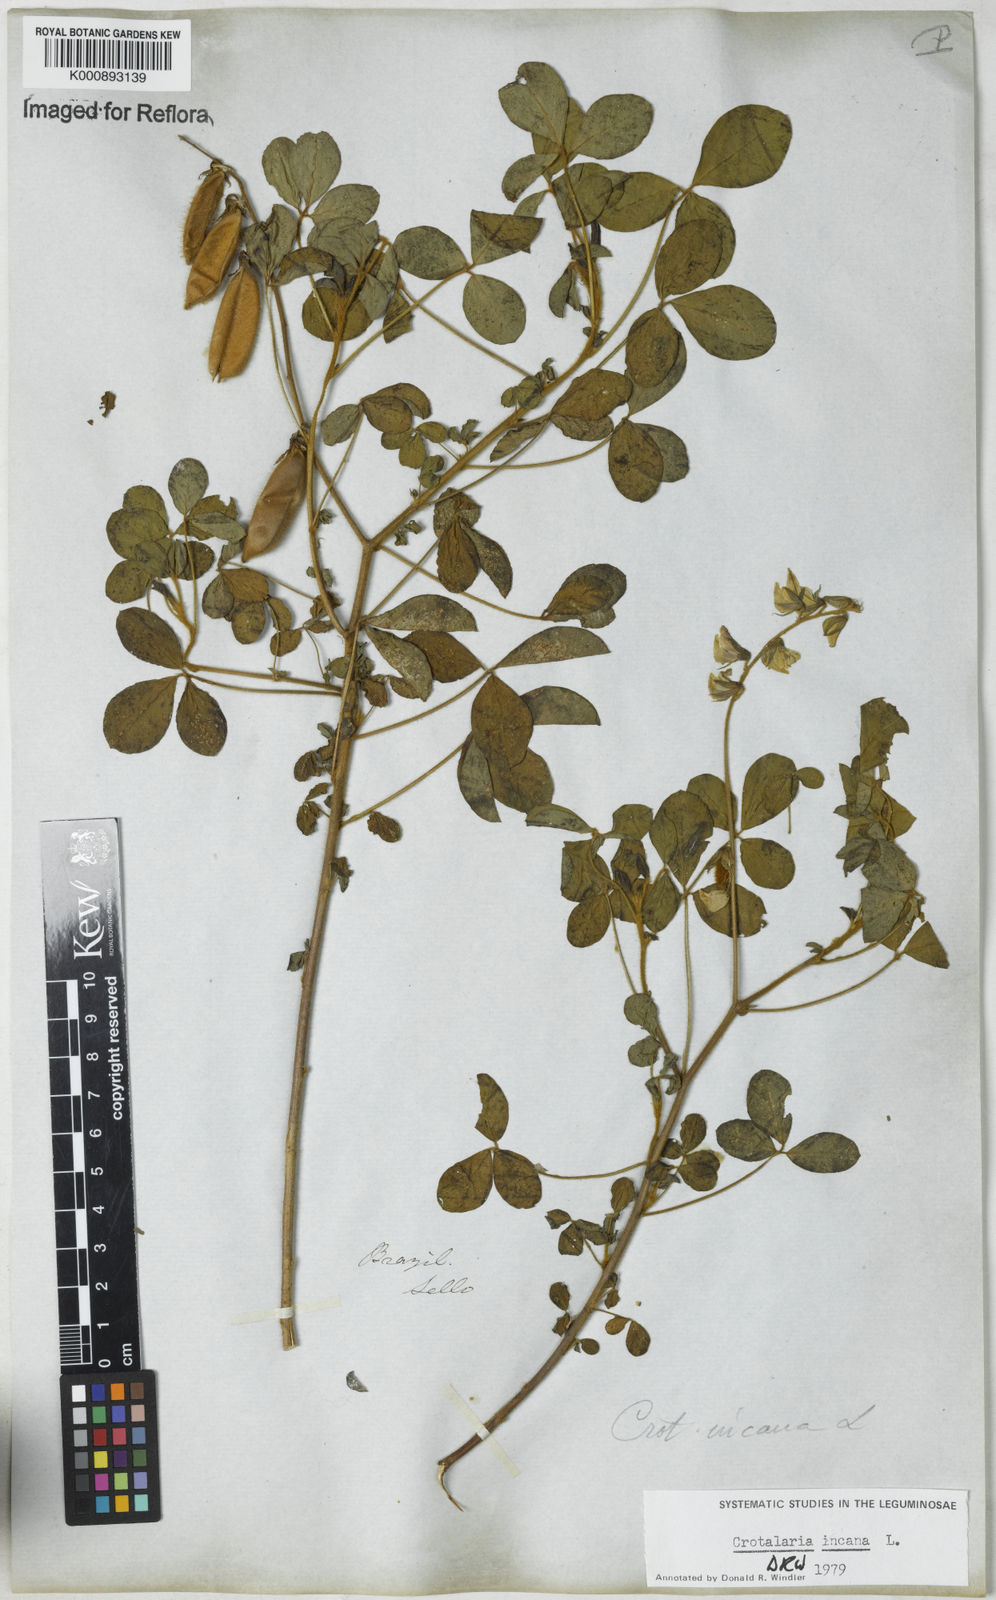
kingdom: Plantae
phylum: Tracheophyta
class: Magnoliopsida
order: Fabales
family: Fabaceae
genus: Crotalaria
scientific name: Crotalaria incana
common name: Shakeshake
